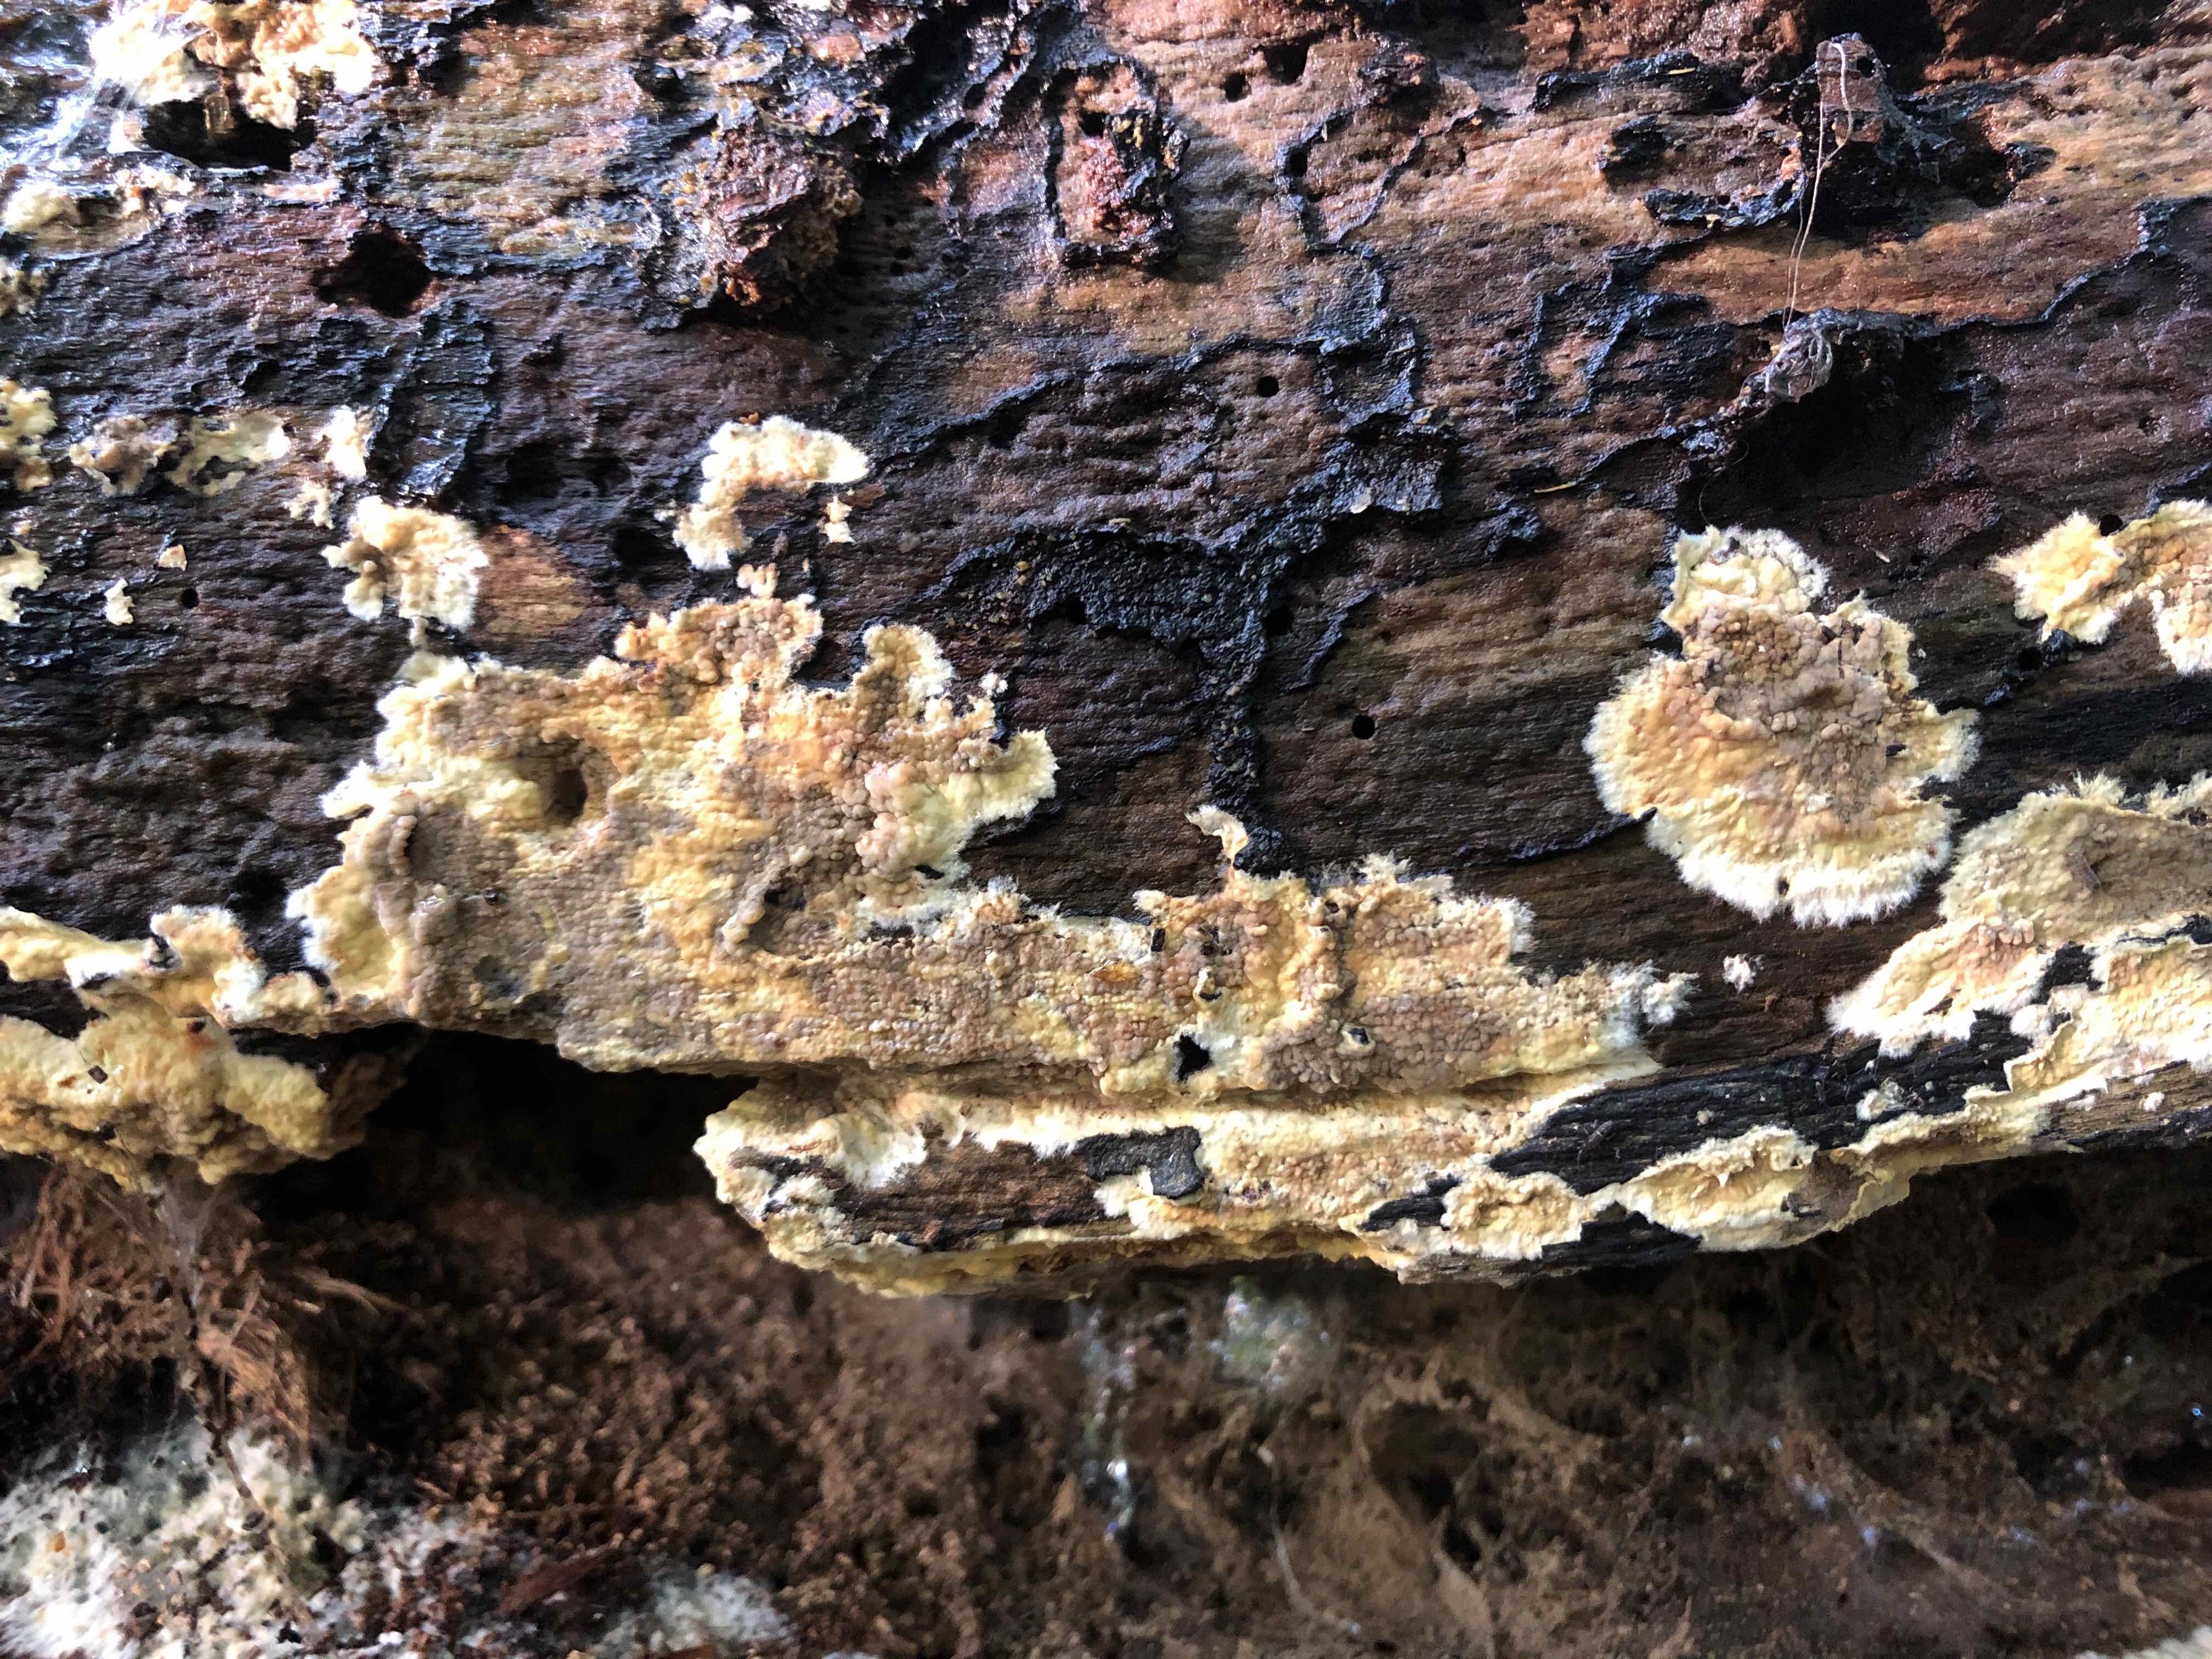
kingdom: Fungi
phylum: Basidiomycota
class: Agaricomycetes
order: Boletales
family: Coniophoraceae
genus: Coniophora
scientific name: Coniophora puteana
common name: gul tømmersvamp
